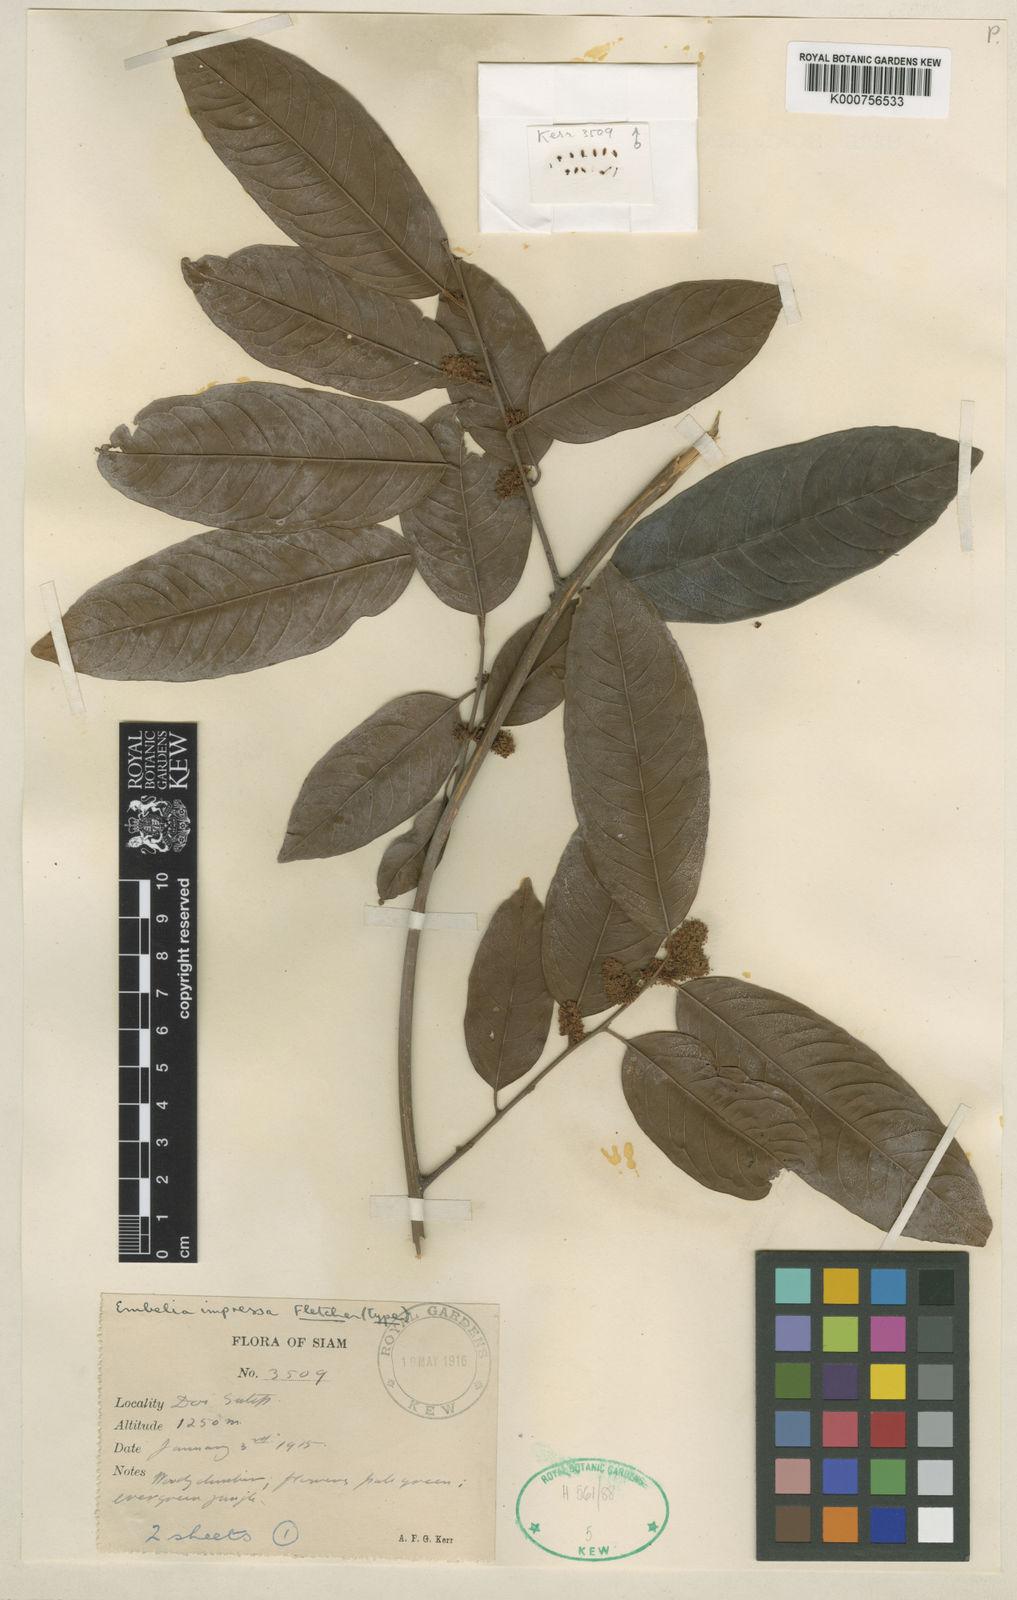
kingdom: Plantae
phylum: Tracheophyta
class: Magnoliopsida
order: Ericales
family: Primulaceae
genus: Embelia
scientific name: Embelia impressa
